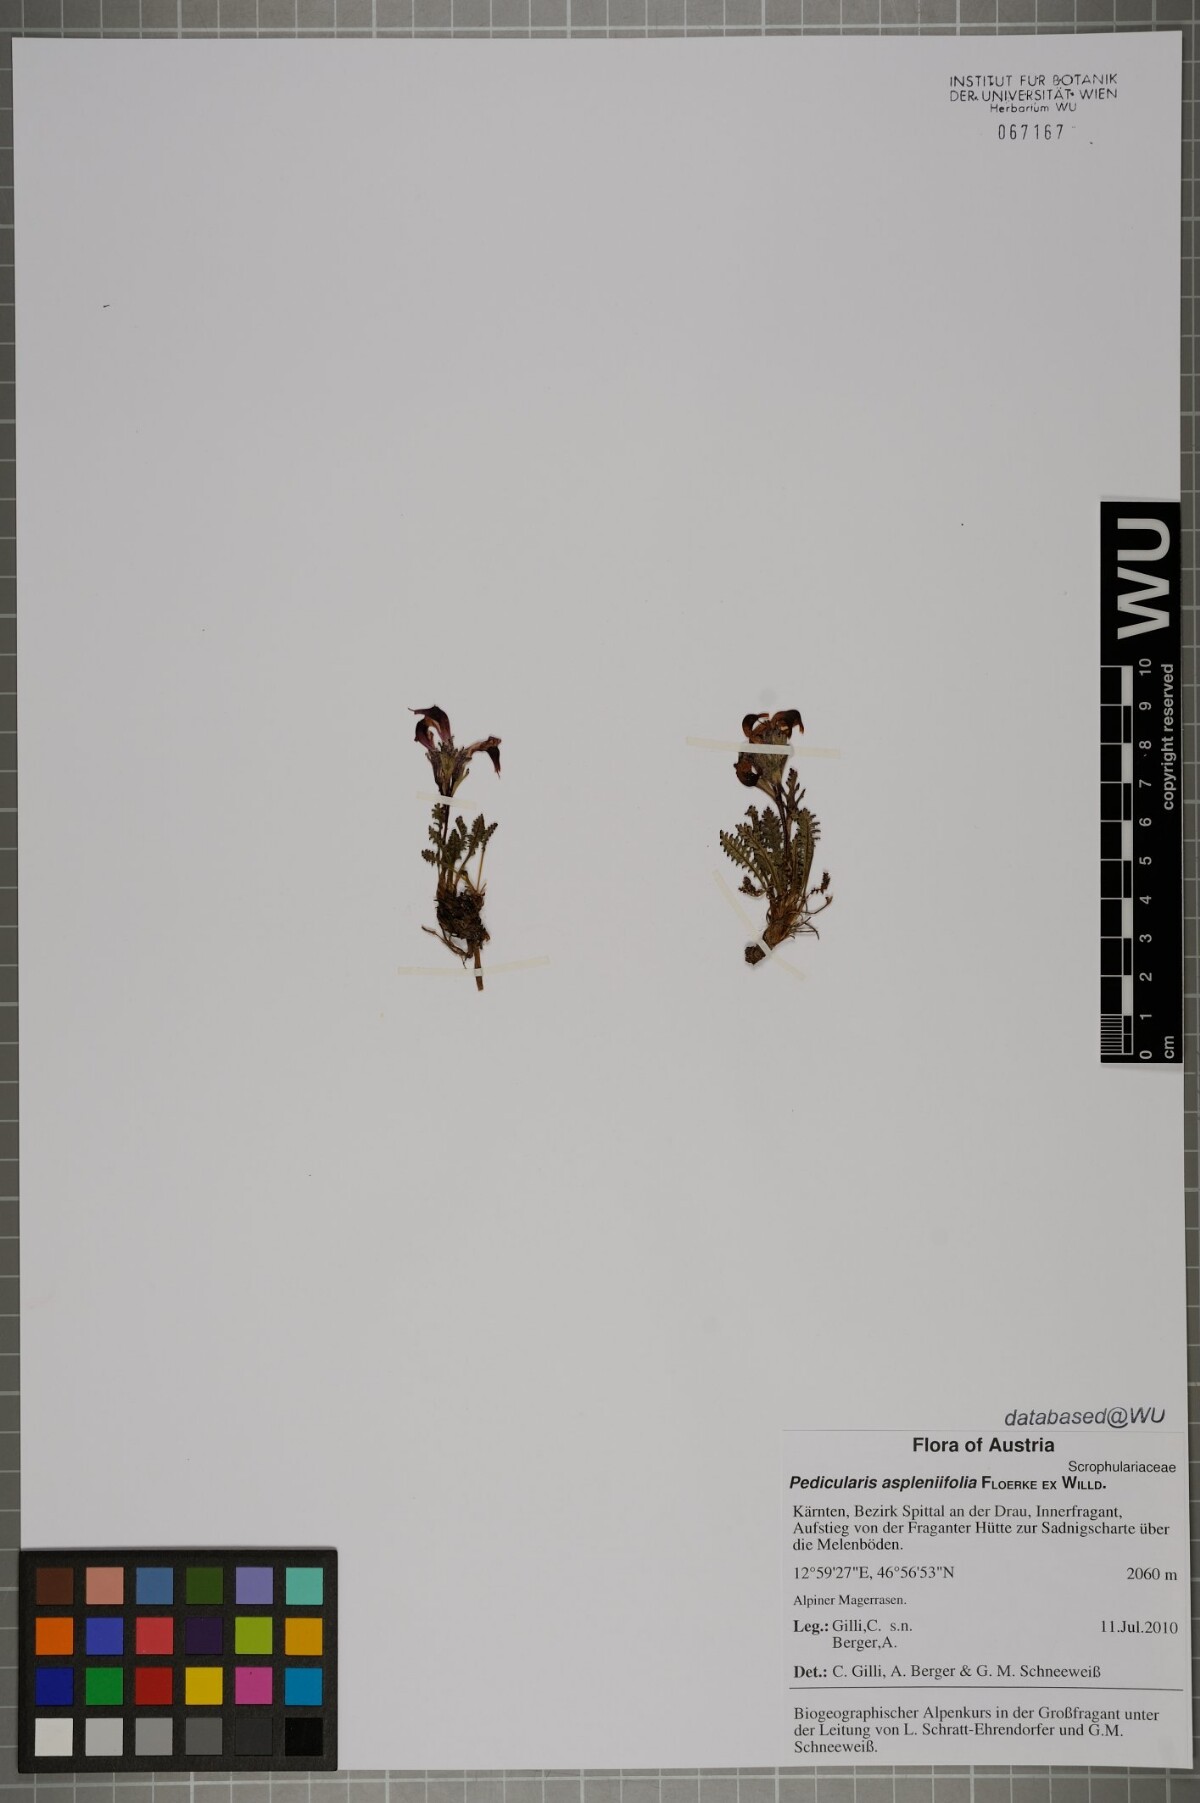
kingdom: Plantae
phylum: Tracheophyta
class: Magnoliopsida
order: Lamiales
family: Orobanchaceae
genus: Pedicularis
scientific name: Pedicularis asplenifolia
